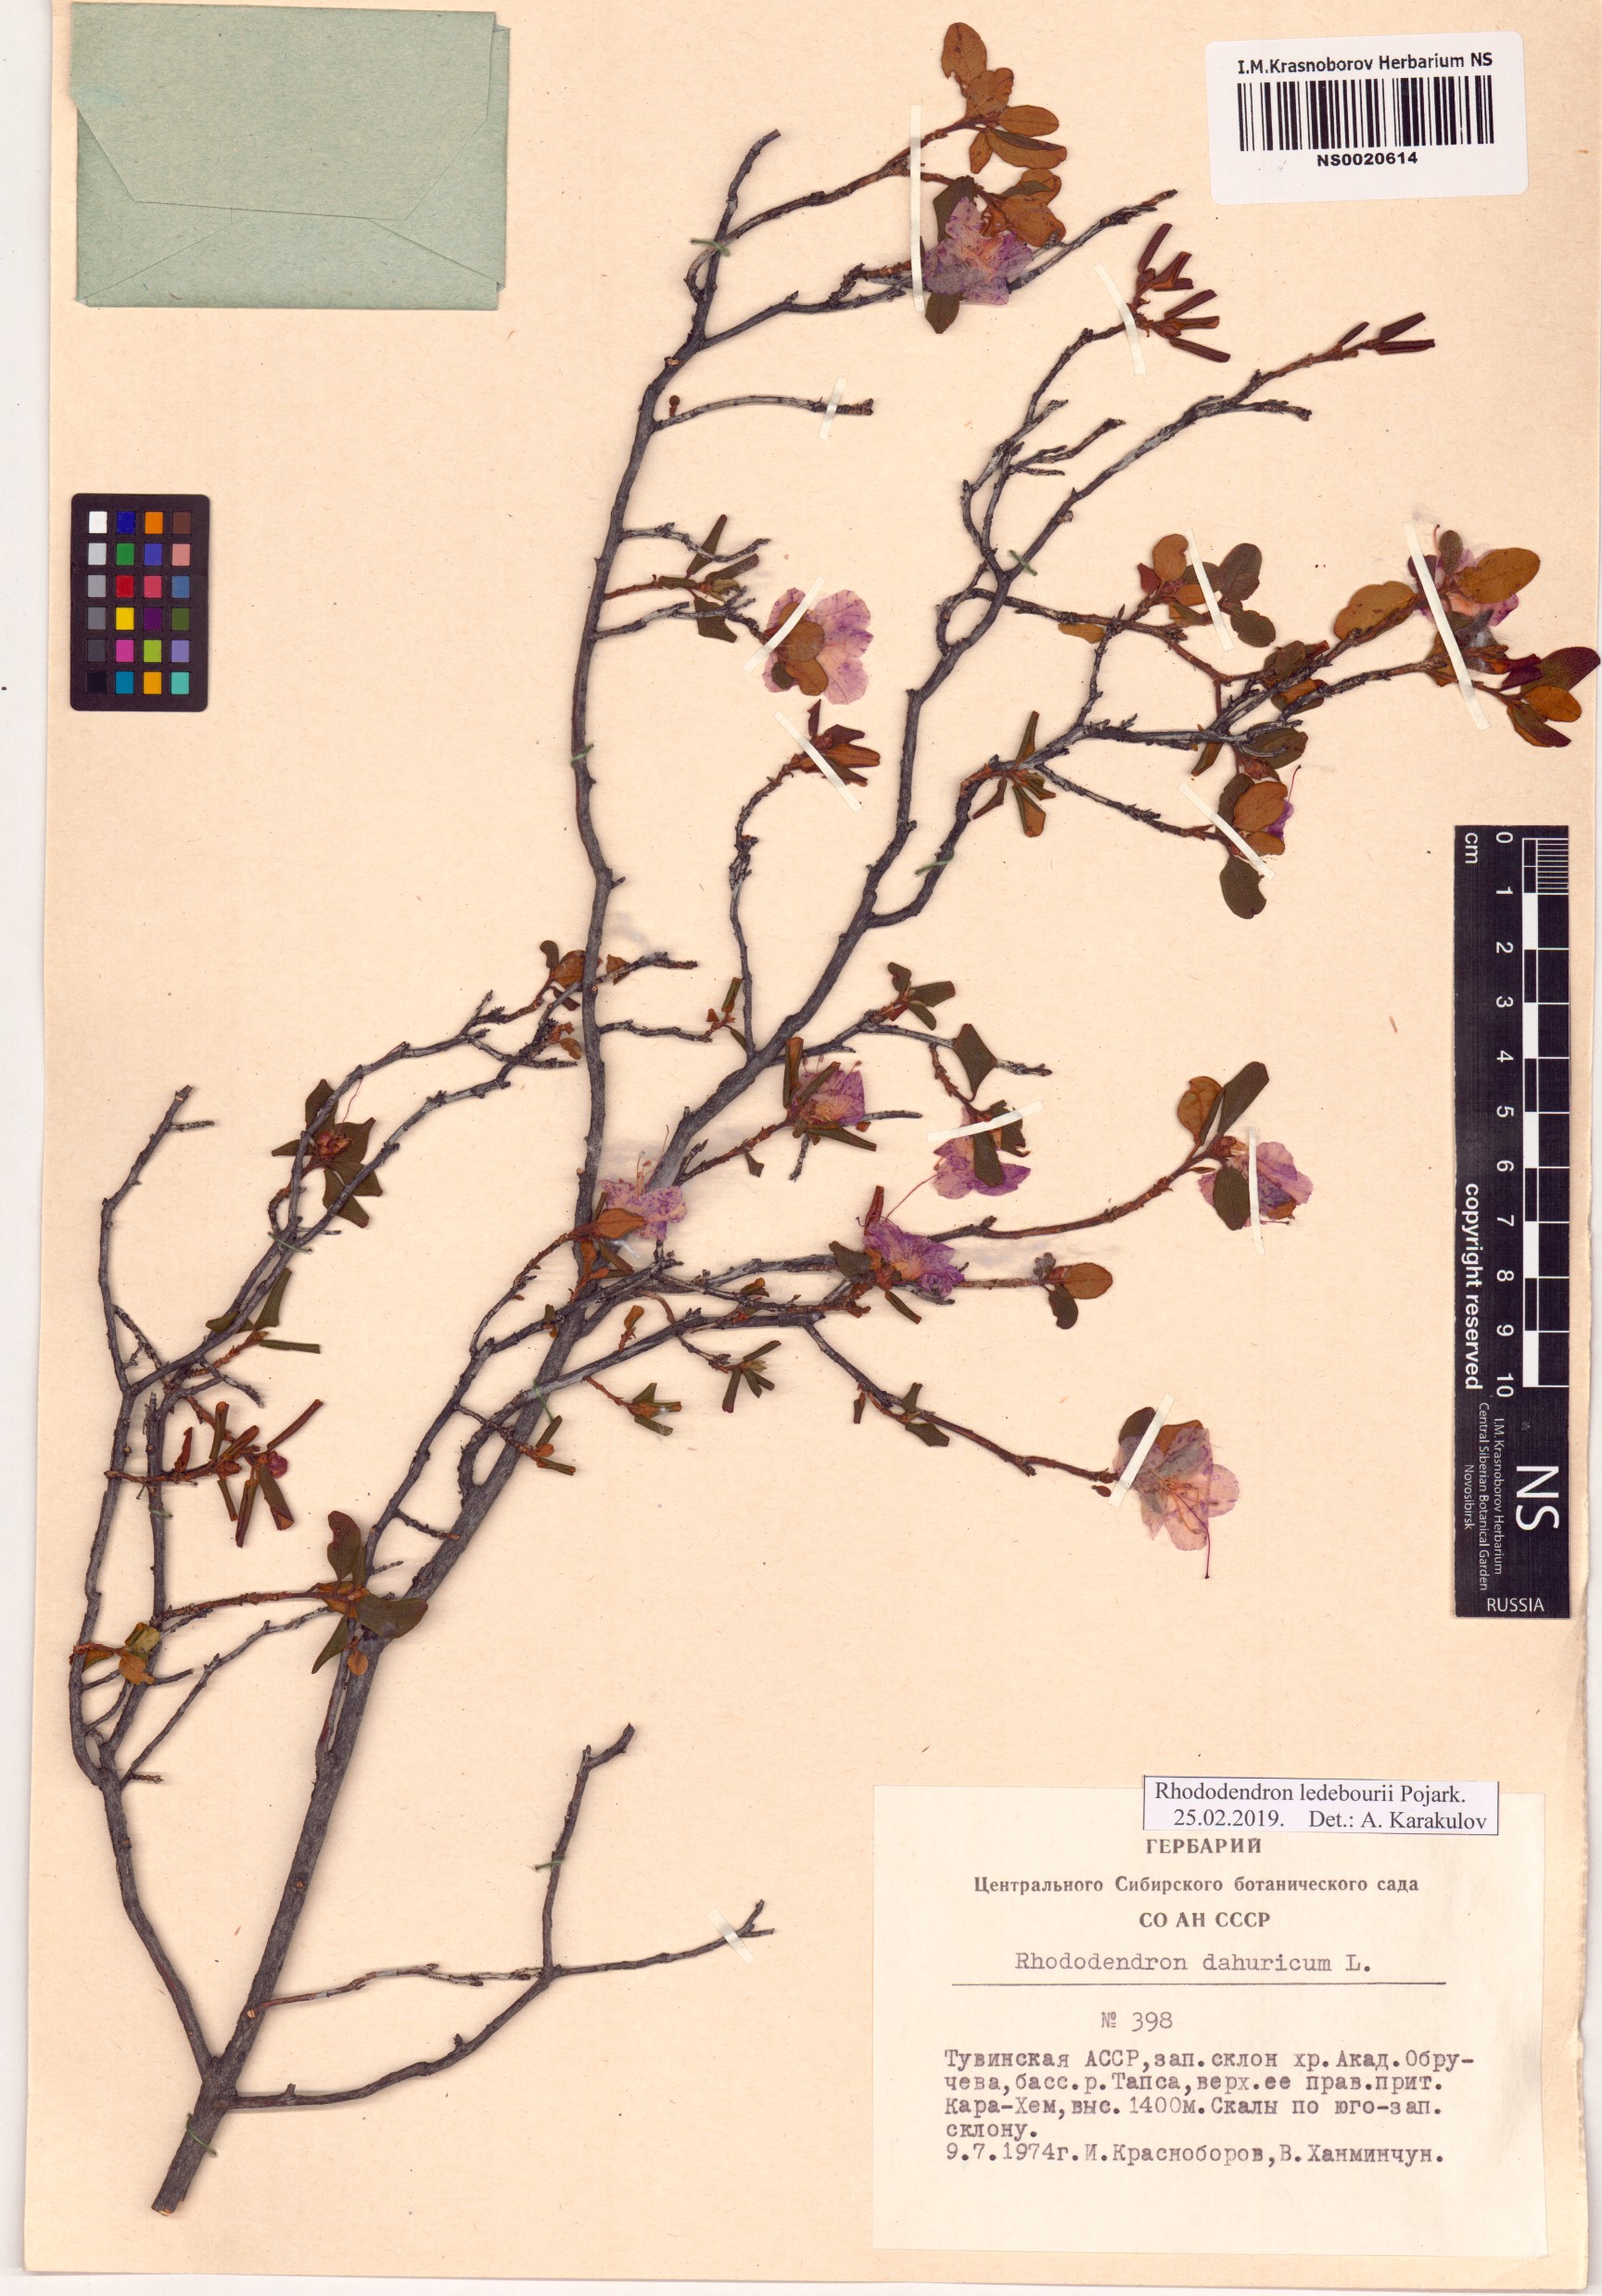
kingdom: Plantae
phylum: Tracheophyta
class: Magnoliopsida
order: Ericales
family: Ericaceae
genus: Rhododendron
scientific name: Rhododendron dauricum
